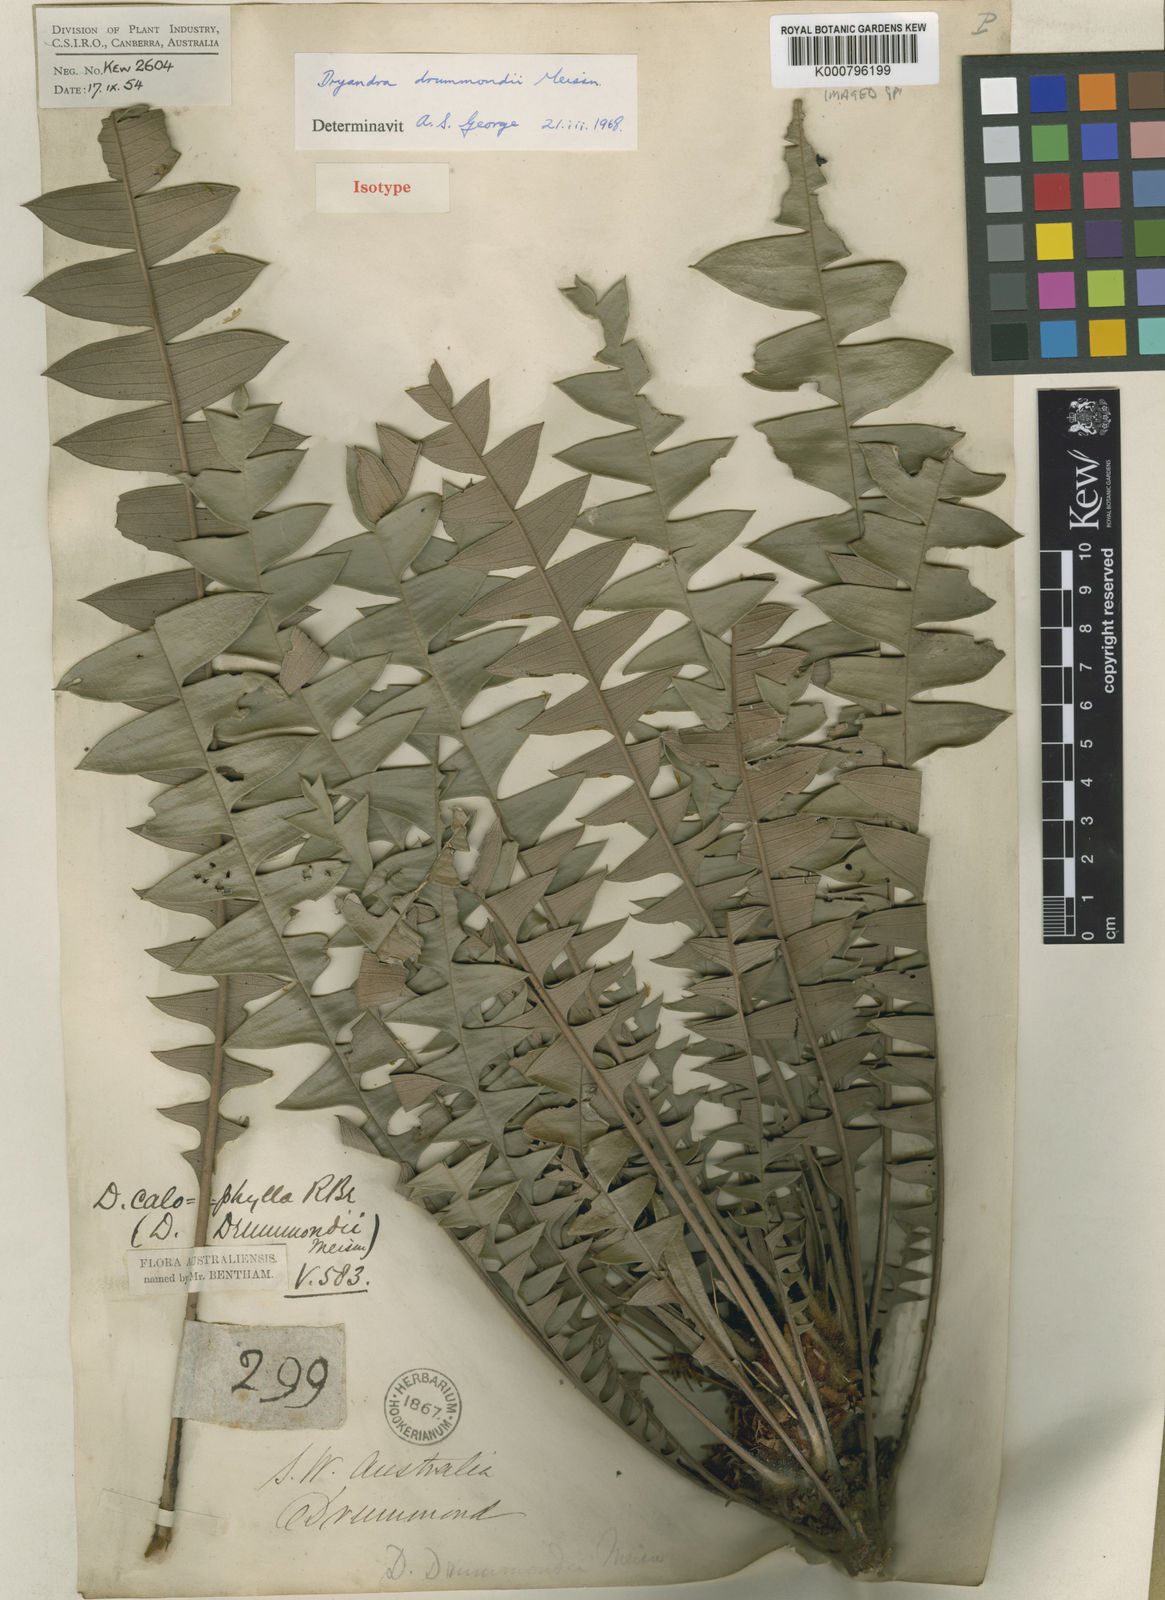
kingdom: Plantae
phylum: Tracheophyta
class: Magnoliopsida
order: Proteales
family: Proteaceae
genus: Banksia
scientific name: Banksia drummondii
